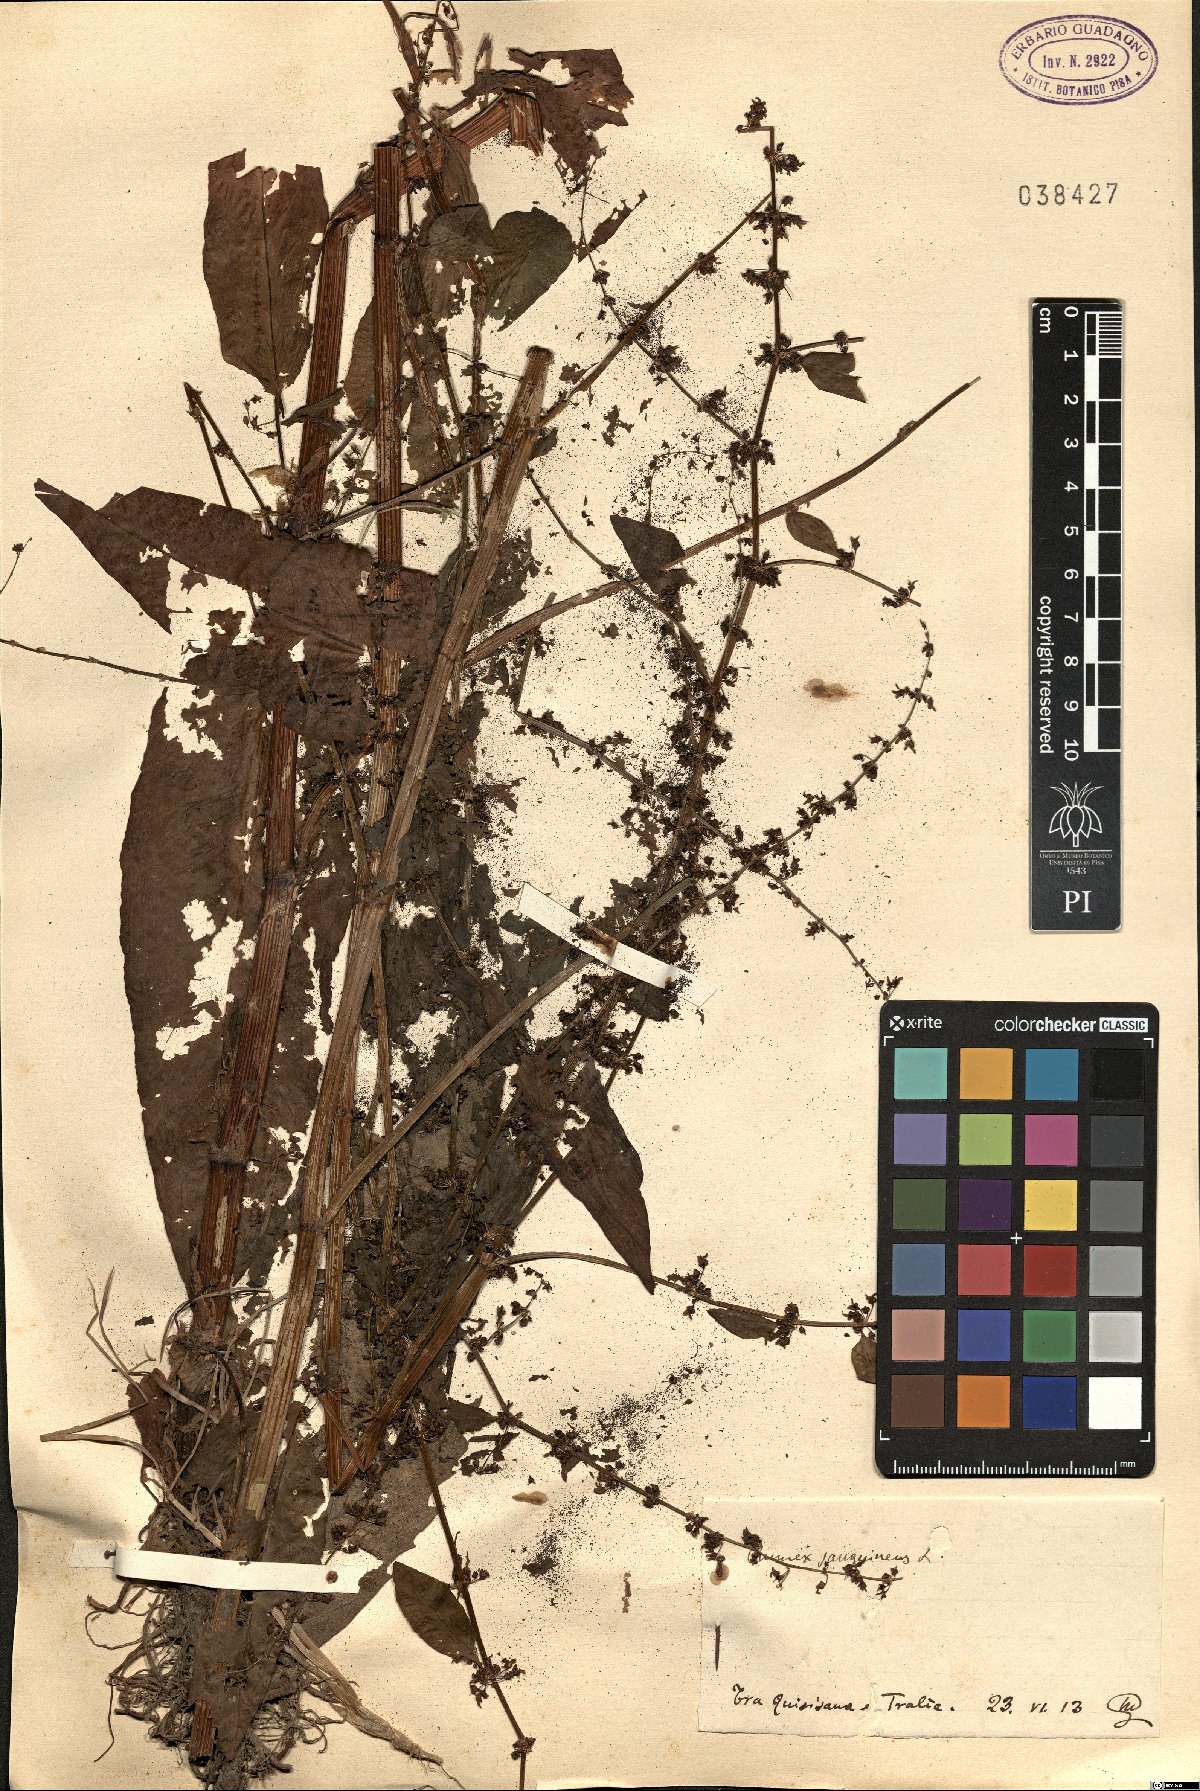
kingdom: Plantae
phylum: Tracheophyta
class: Magnoliopsida
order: Caryophyllales
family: Polygonaceae
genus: Rumex
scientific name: Rumex sanguineus
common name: Wood dock
